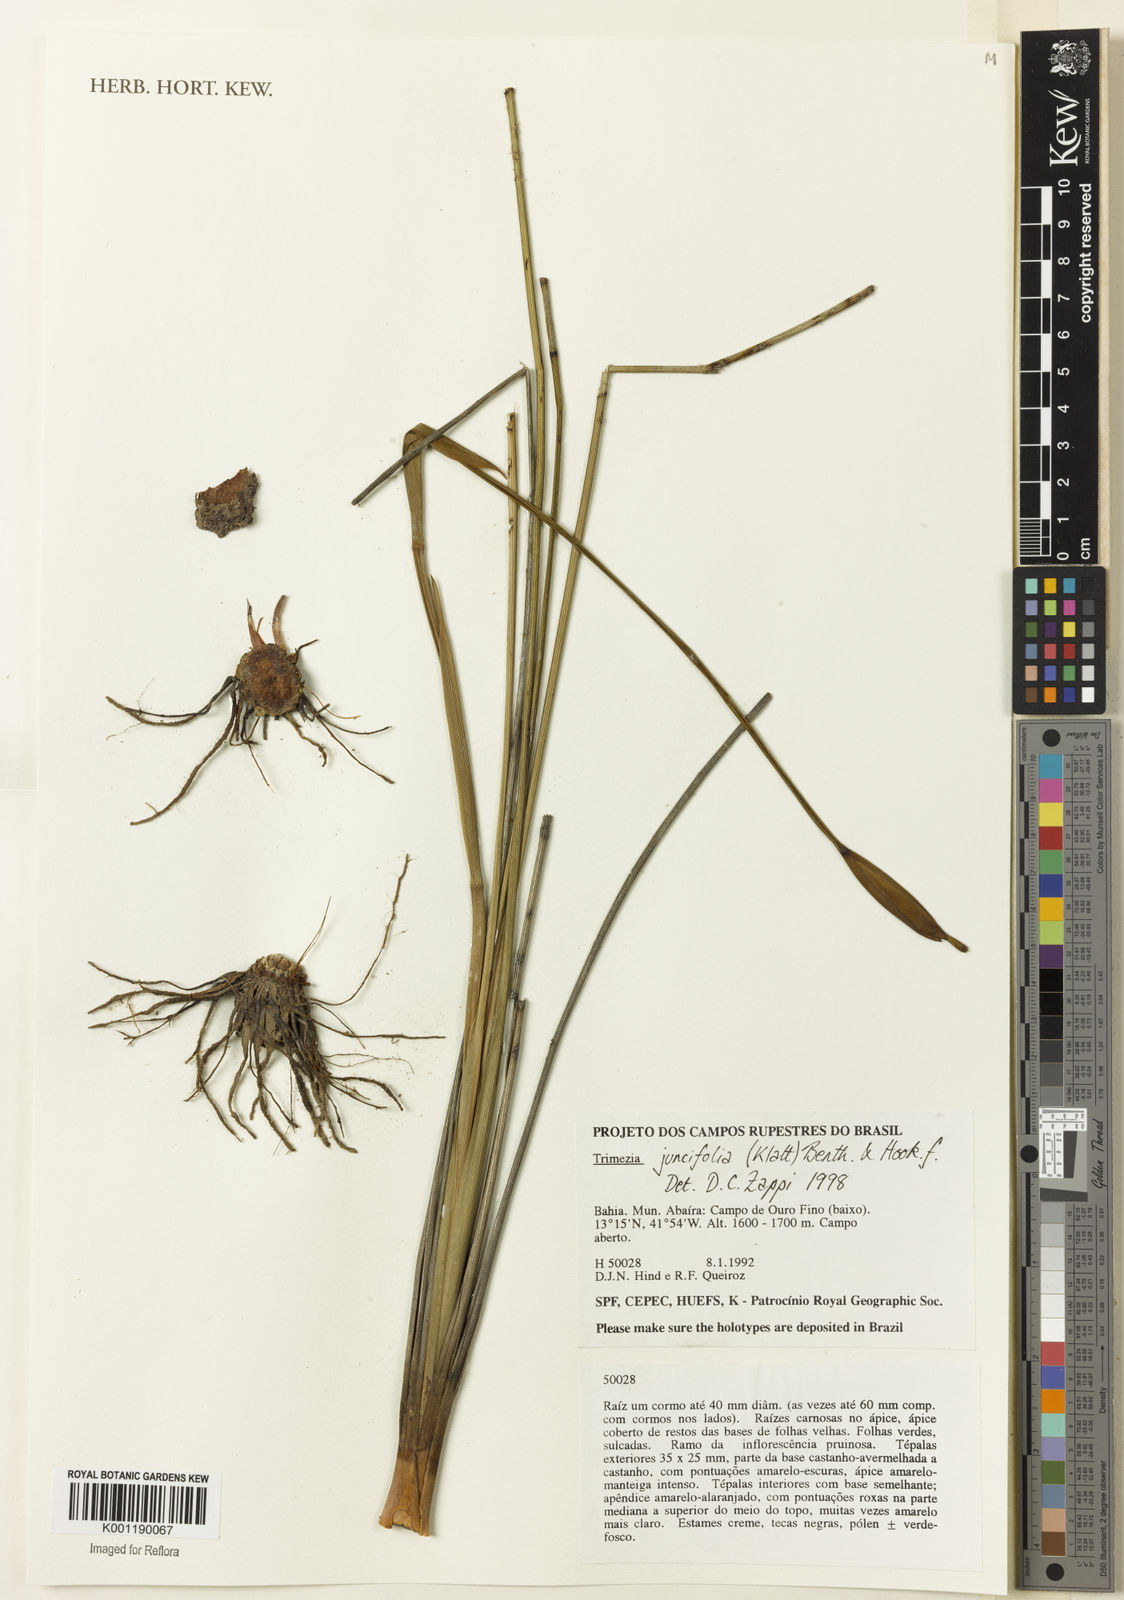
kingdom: Plantae
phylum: Tracheophyta
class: Liliopsida
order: Asparagales
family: Iridaceae
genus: Trimezia
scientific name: Trimezia juncifolia
